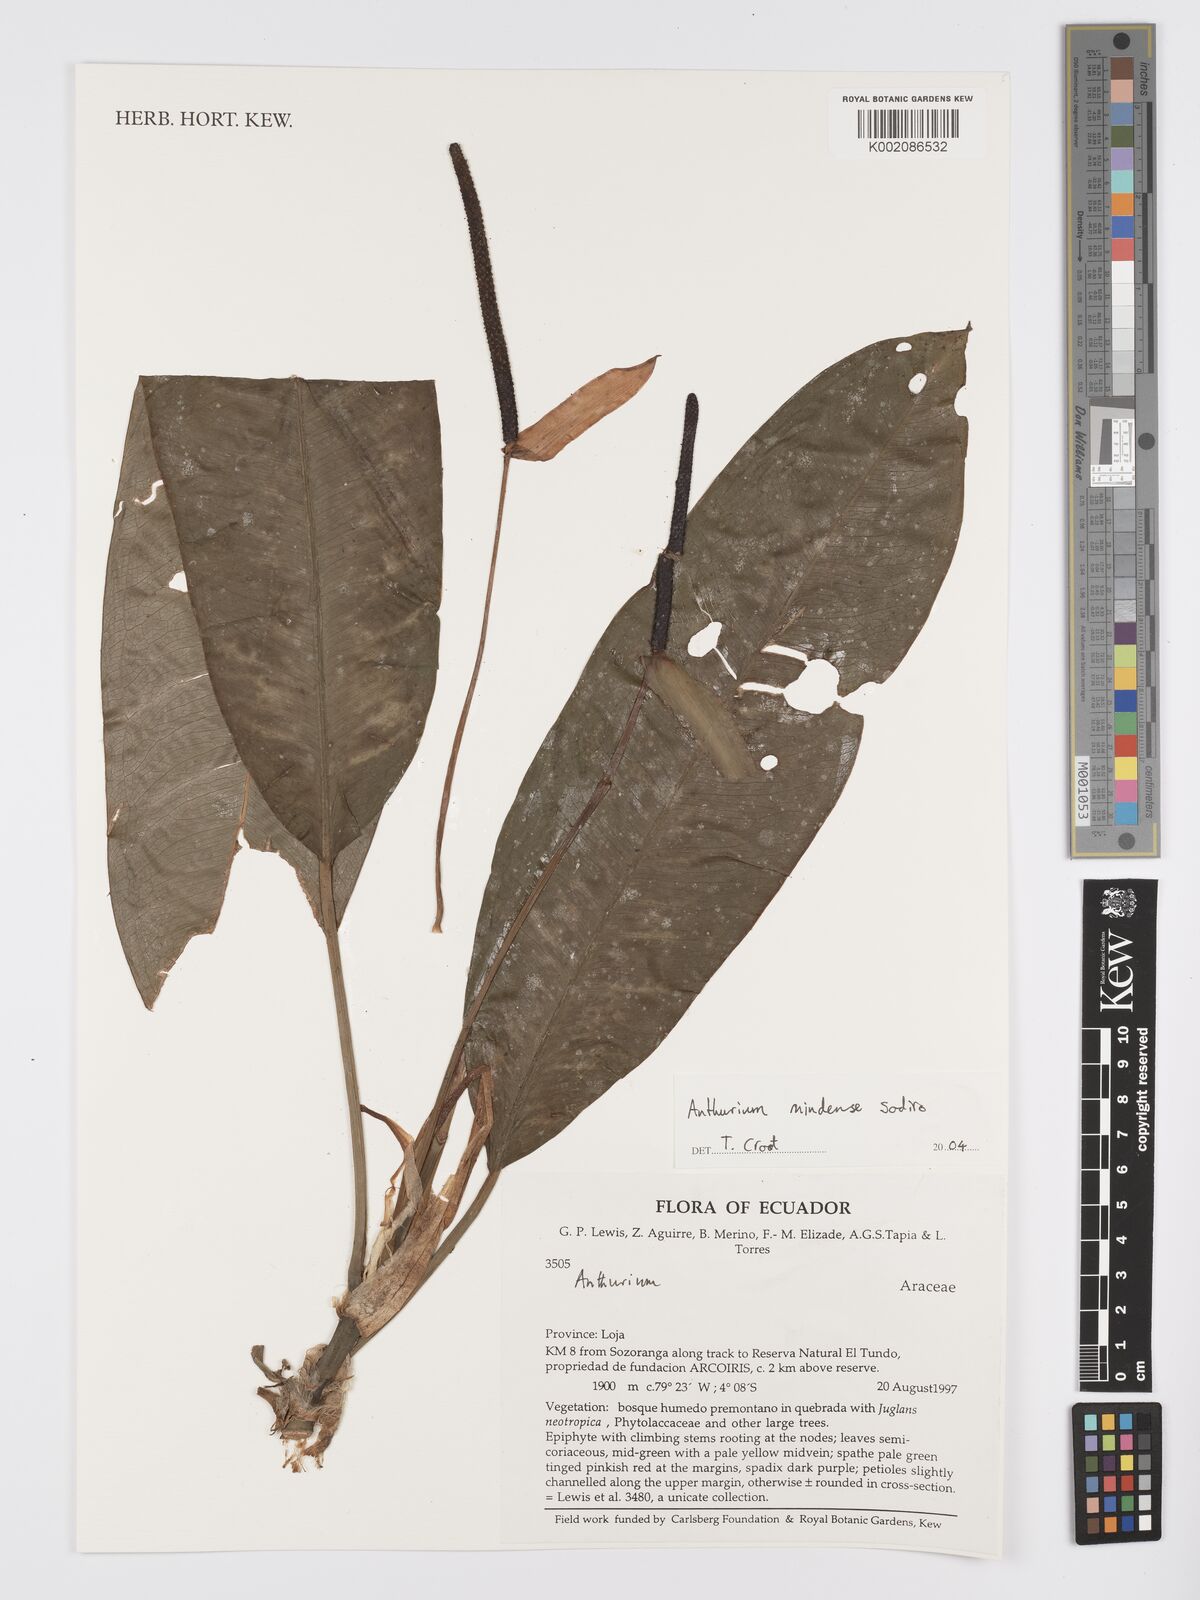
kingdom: Plantae
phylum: Tracheophyta
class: Liliopsida
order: Alismatales
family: Araceae
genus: Anthurium
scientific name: Anthurium mindense
